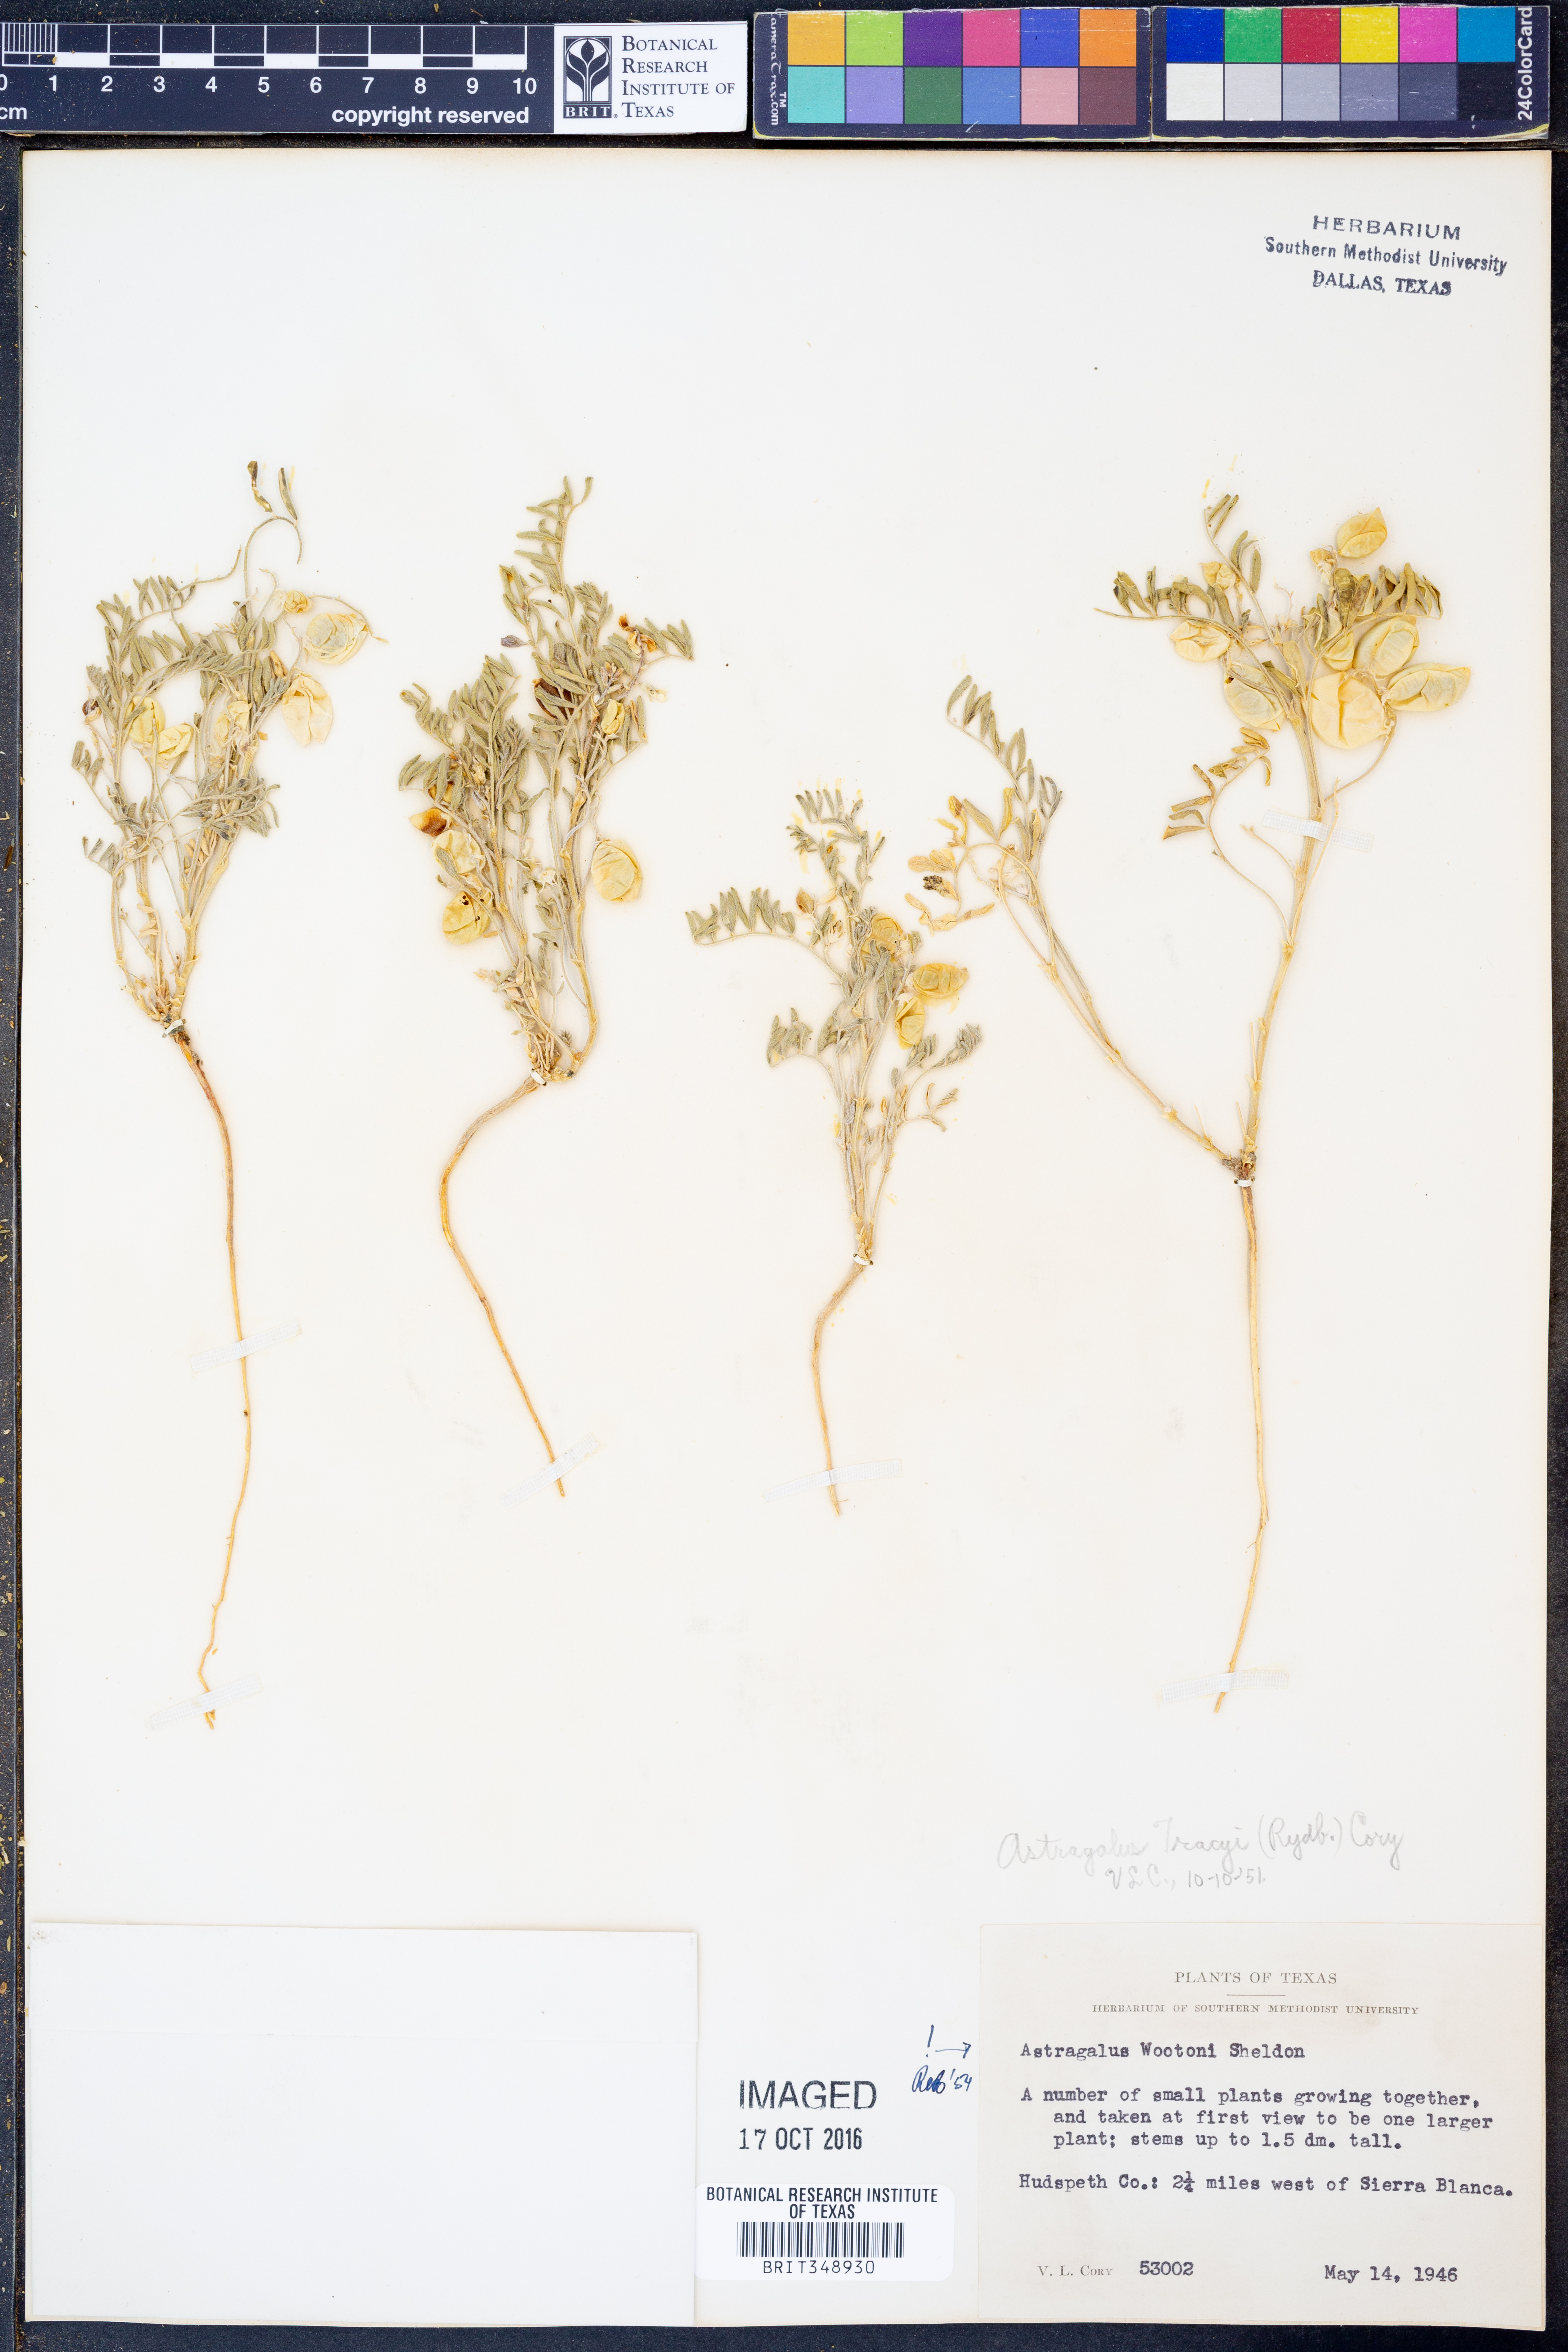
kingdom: Plantae
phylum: Tracheophyta
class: Magnoliopsida
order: Fabales
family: Fabaceae
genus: Astragalus
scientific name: Astragalus wootonii
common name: Wooton's milk-vetch
